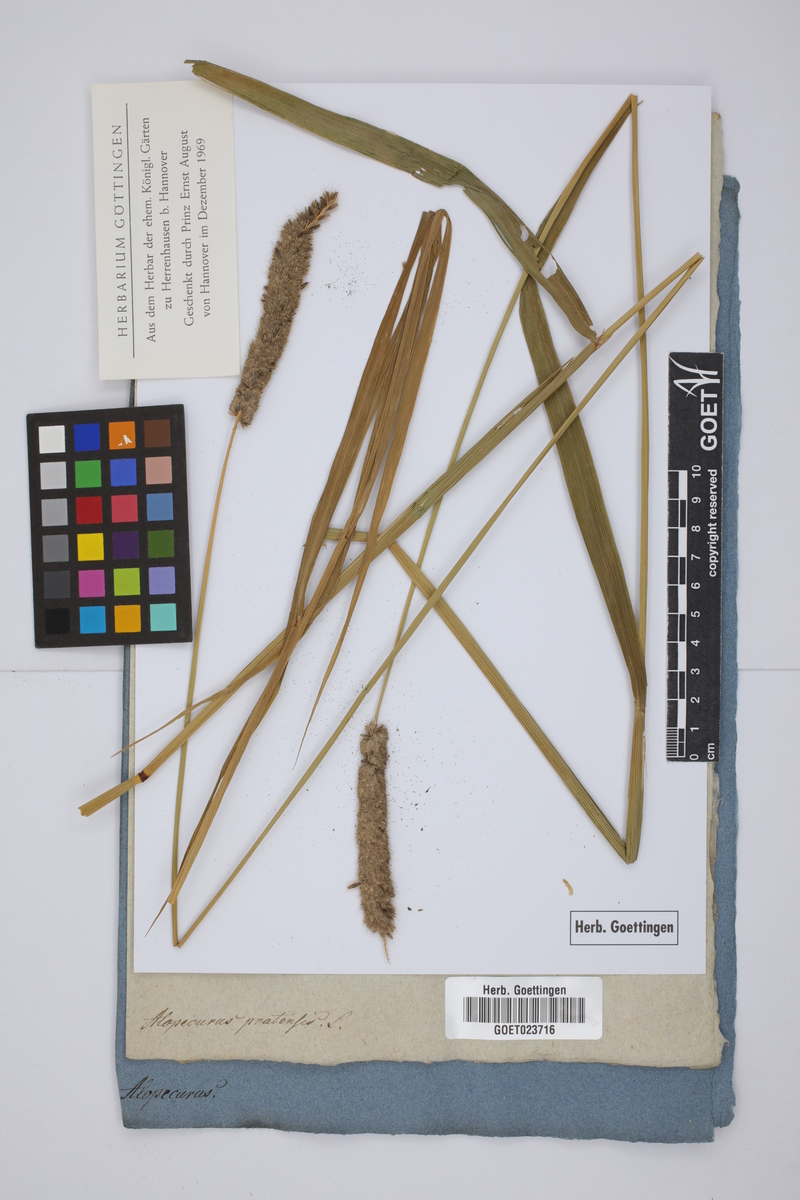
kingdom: Plantae
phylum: Tracheophyta
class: Liliopsida
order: Poales
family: Poaceae
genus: Alopecurus
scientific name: Alopecurus pratensis
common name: Meadow foxtail
